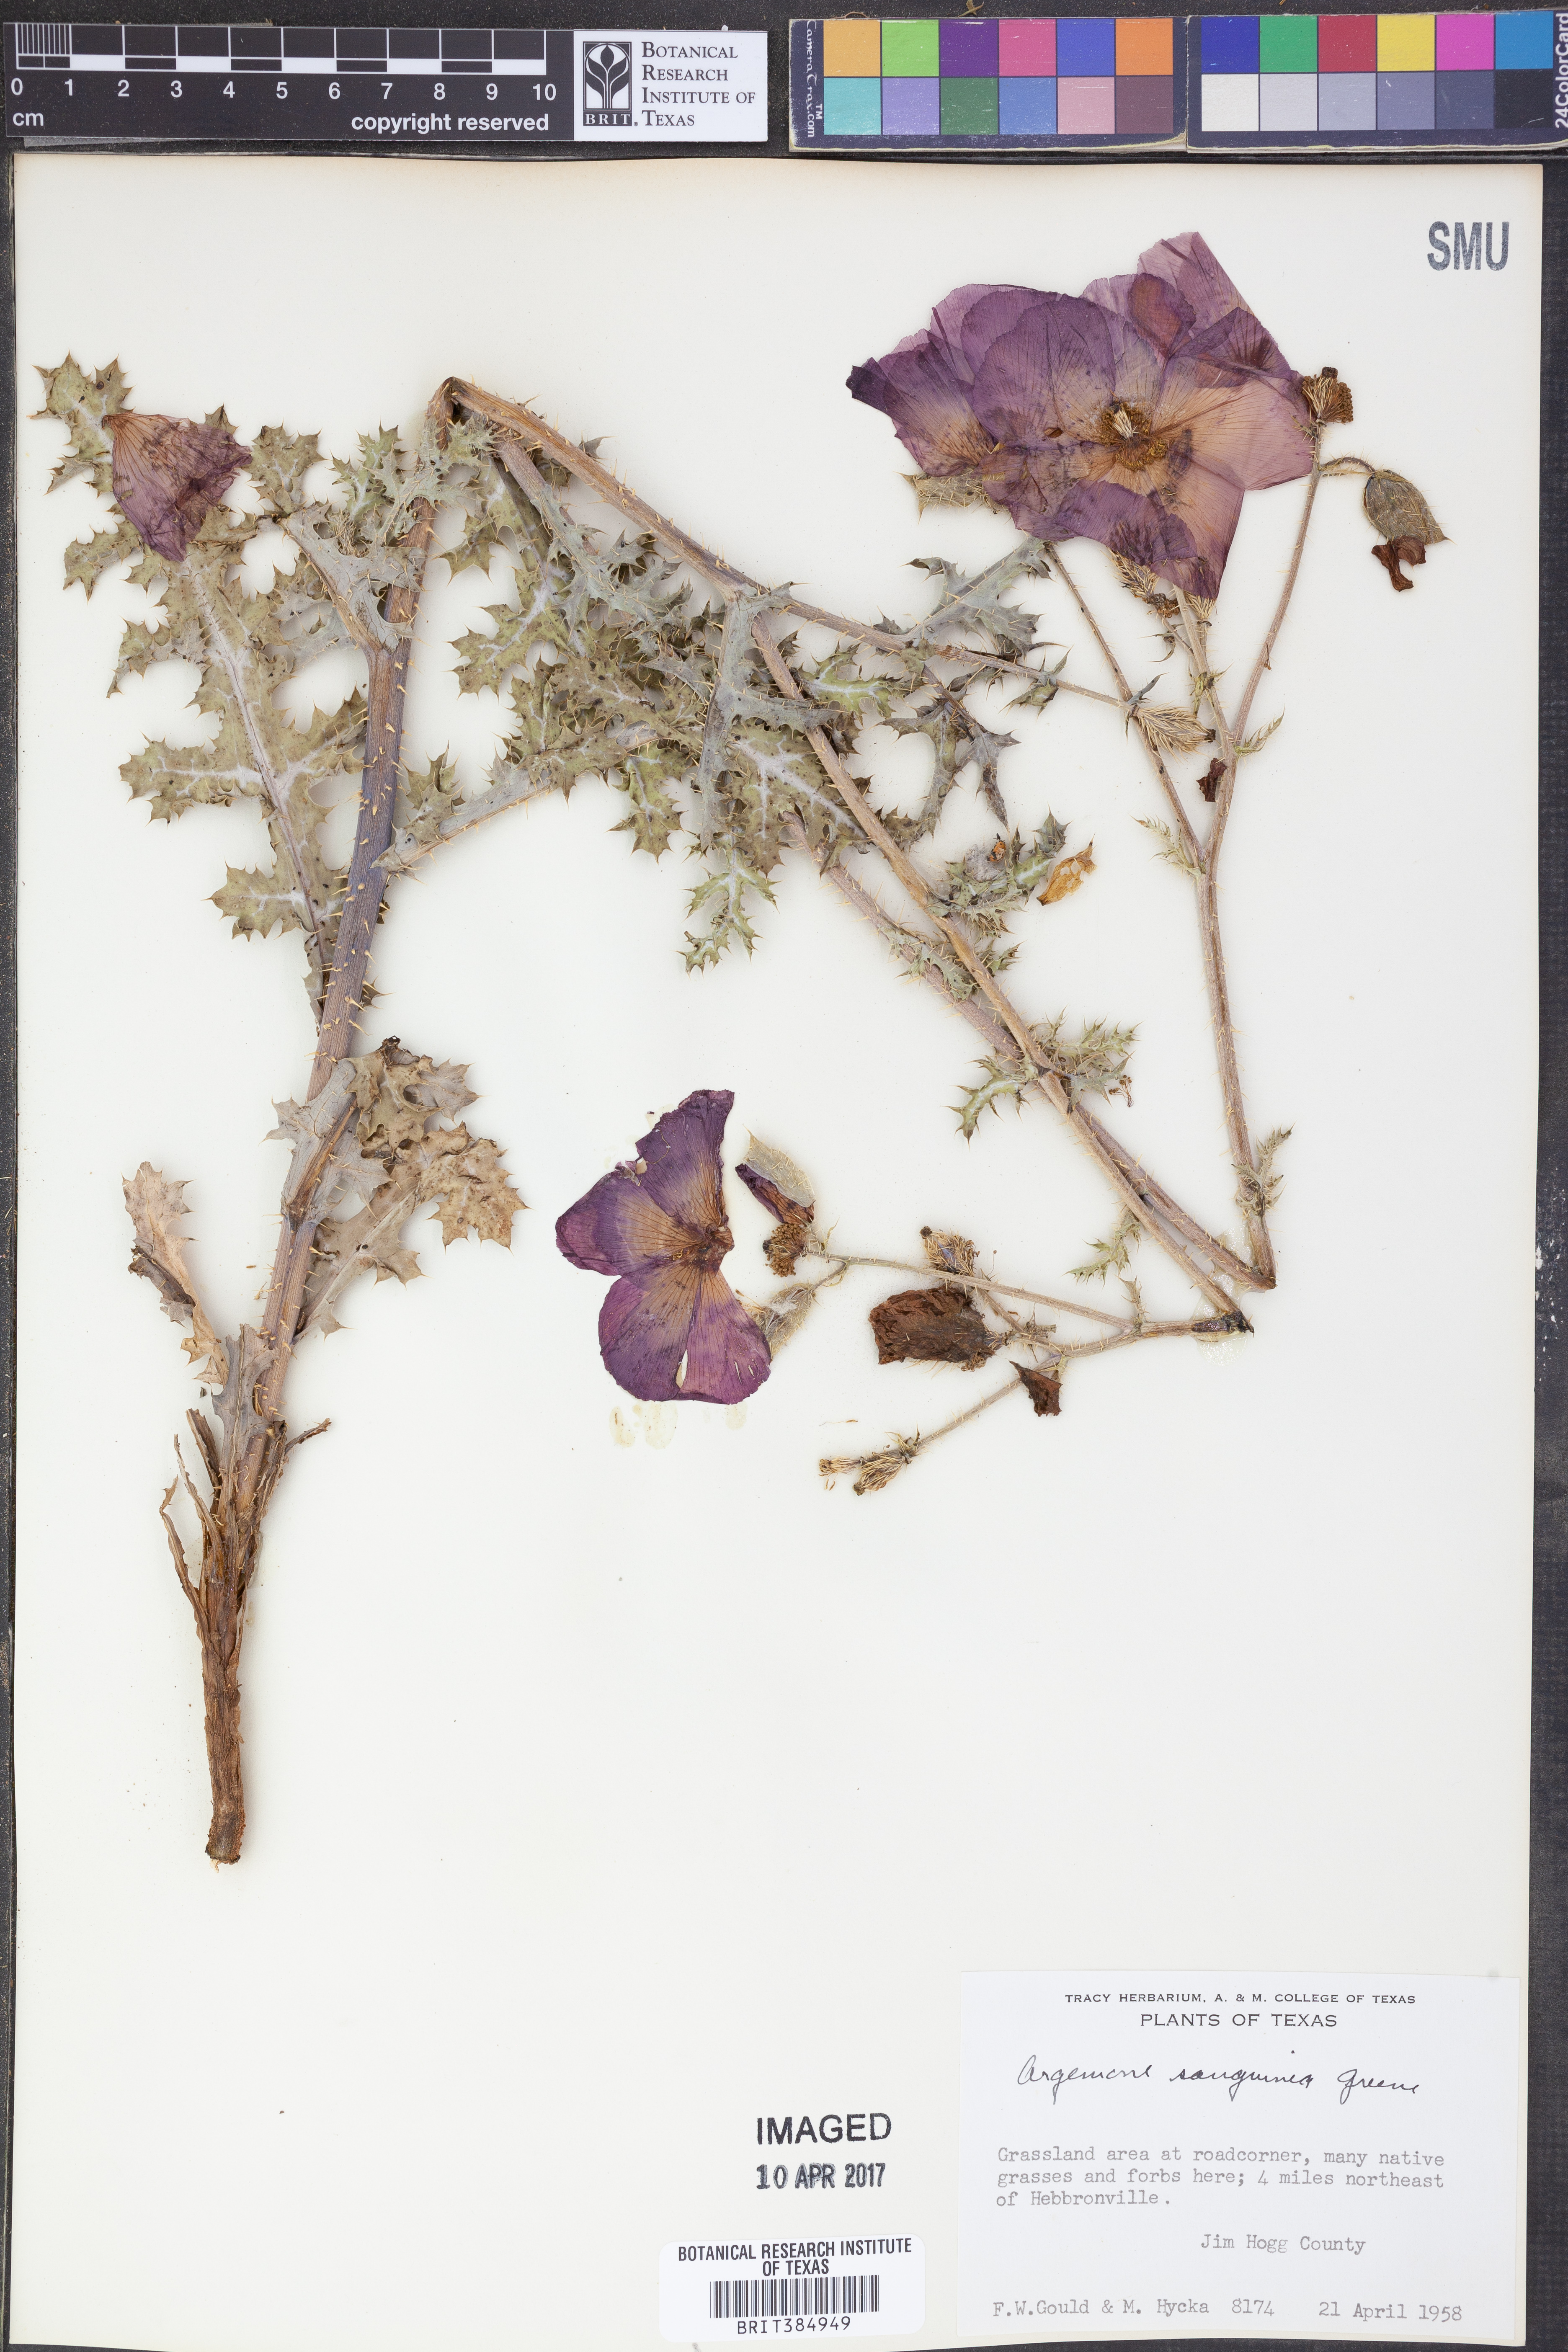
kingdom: Plantae
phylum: Tracheophyta
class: Magnoliopsida
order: Ranunculales
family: Papaveraceae
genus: Argemone
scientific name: Argemone sanguinea
